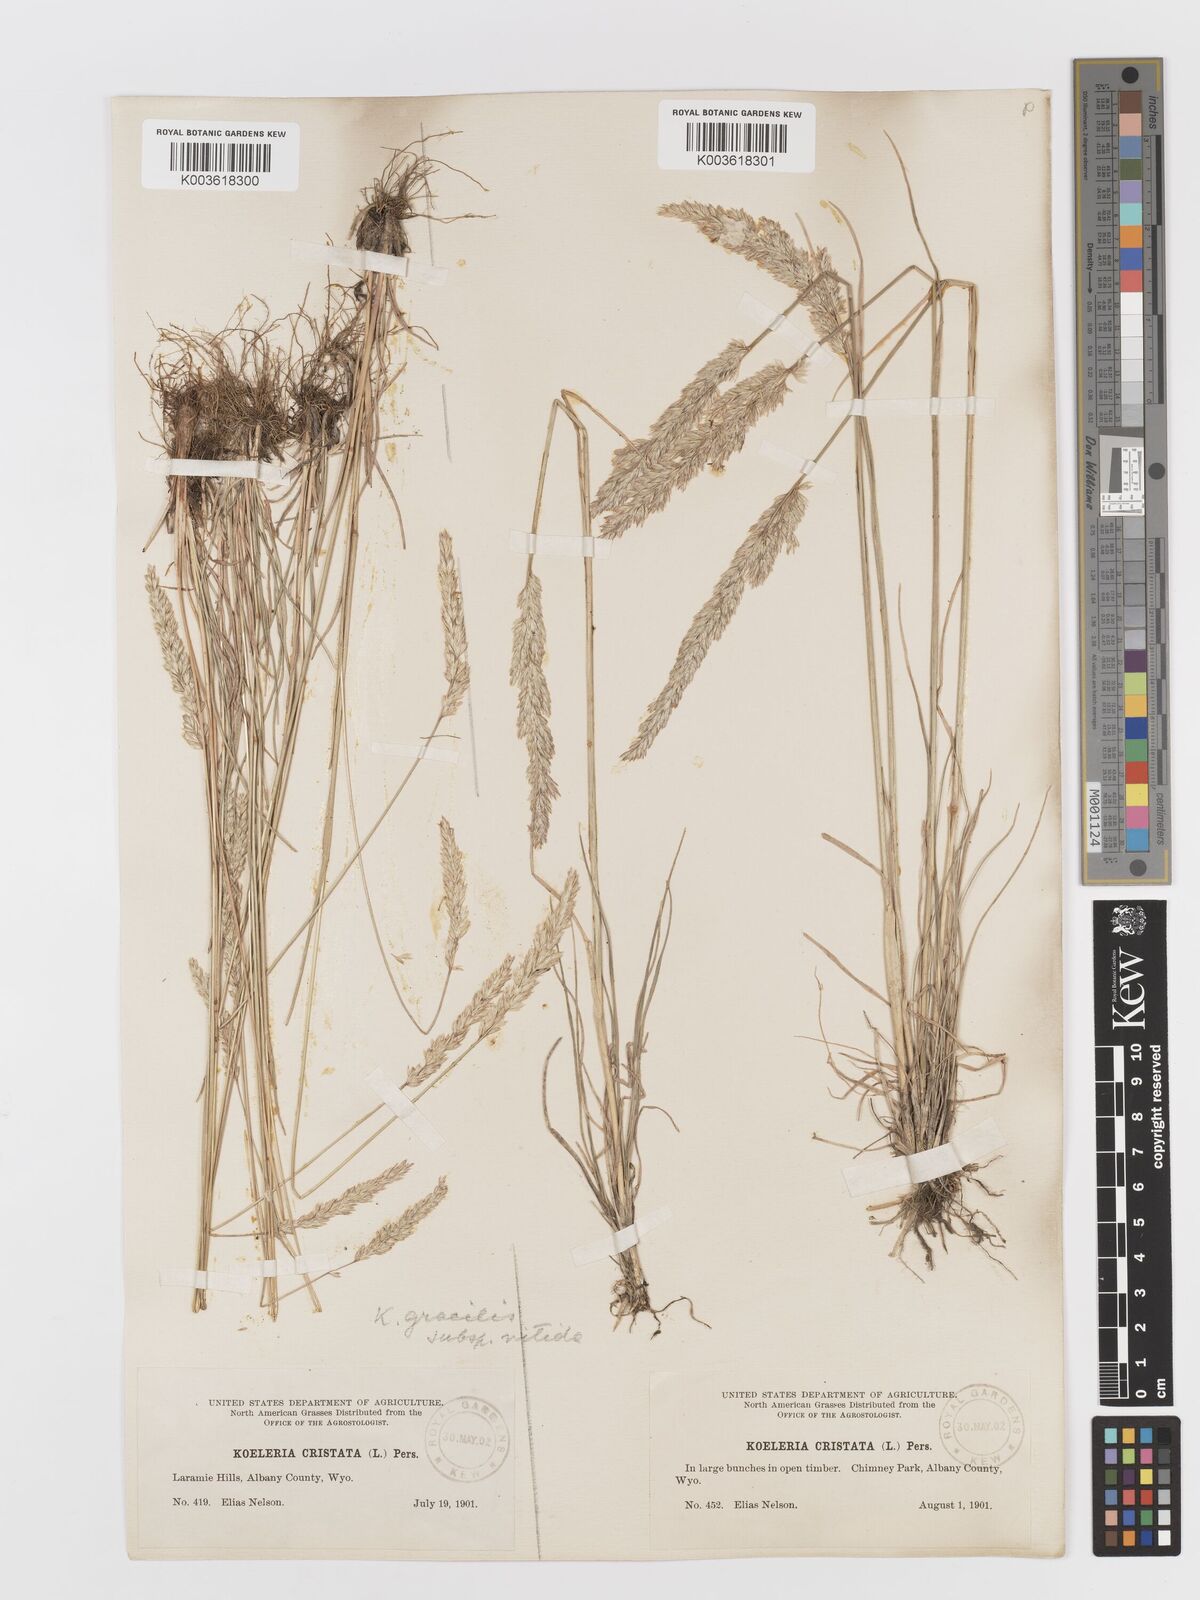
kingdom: Plantae
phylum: Tracheophyta
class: Liliopsida
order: Poales
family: Poaceae
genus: Koeleria
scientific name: Koeleria macrantha
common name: Crested hair-grass
